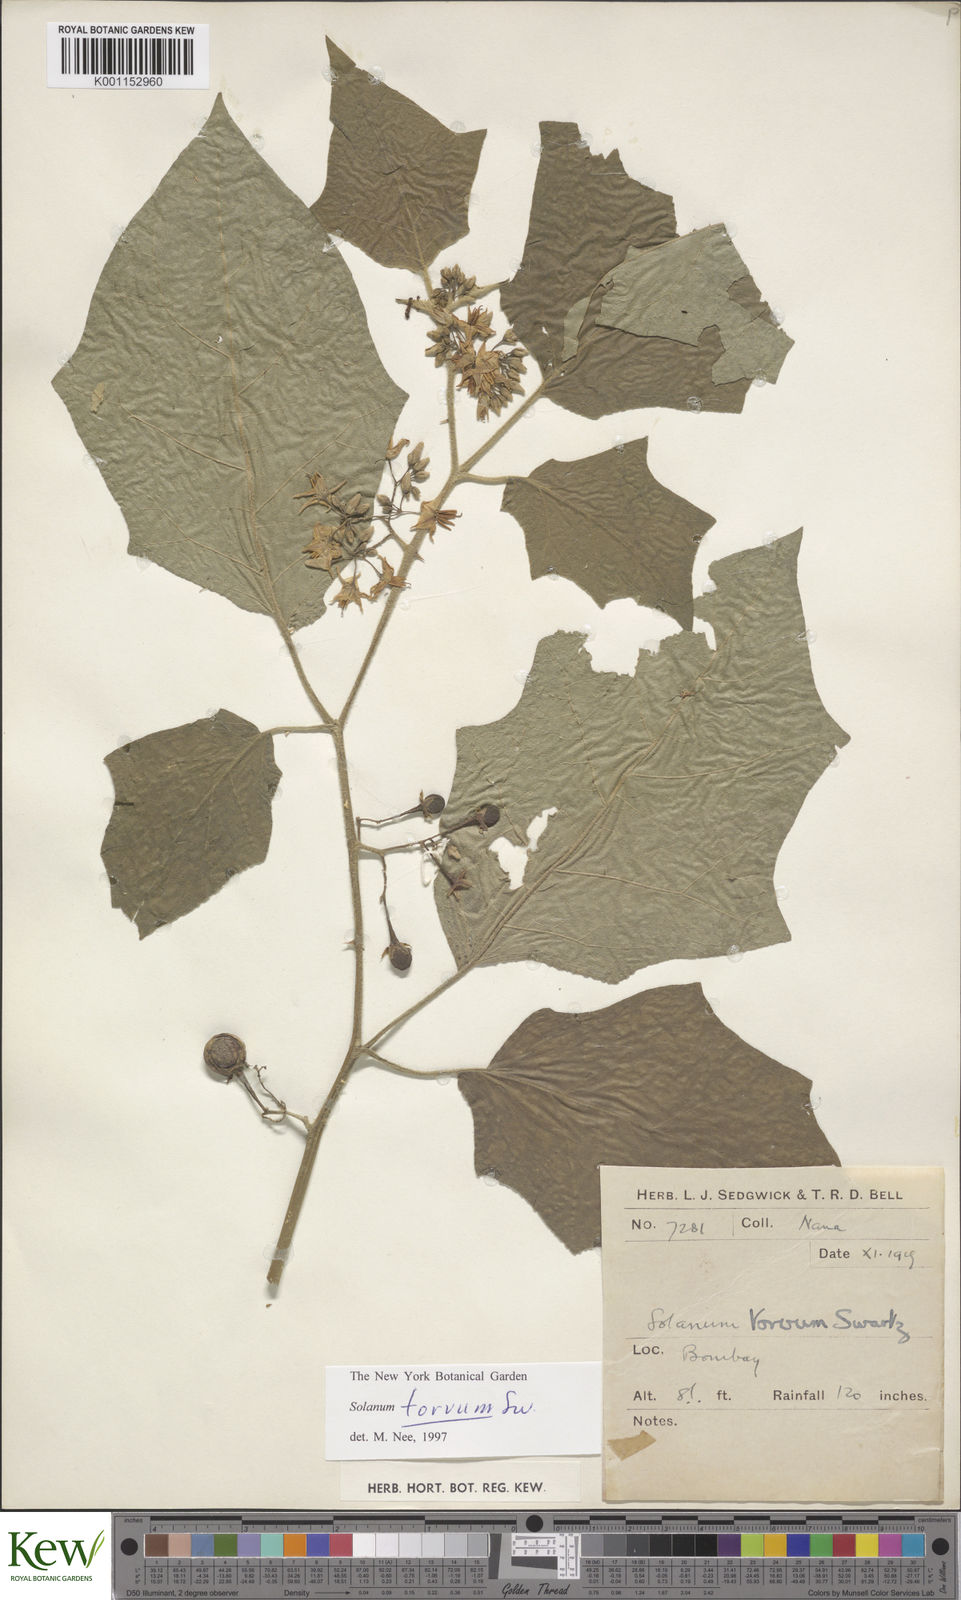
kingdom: Plantae
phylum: Tracheophyta
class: Magnoliopsida
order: Solanales
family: Solanaceae
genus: Solanum
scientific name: Solanum torvum
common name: Turkey berry
